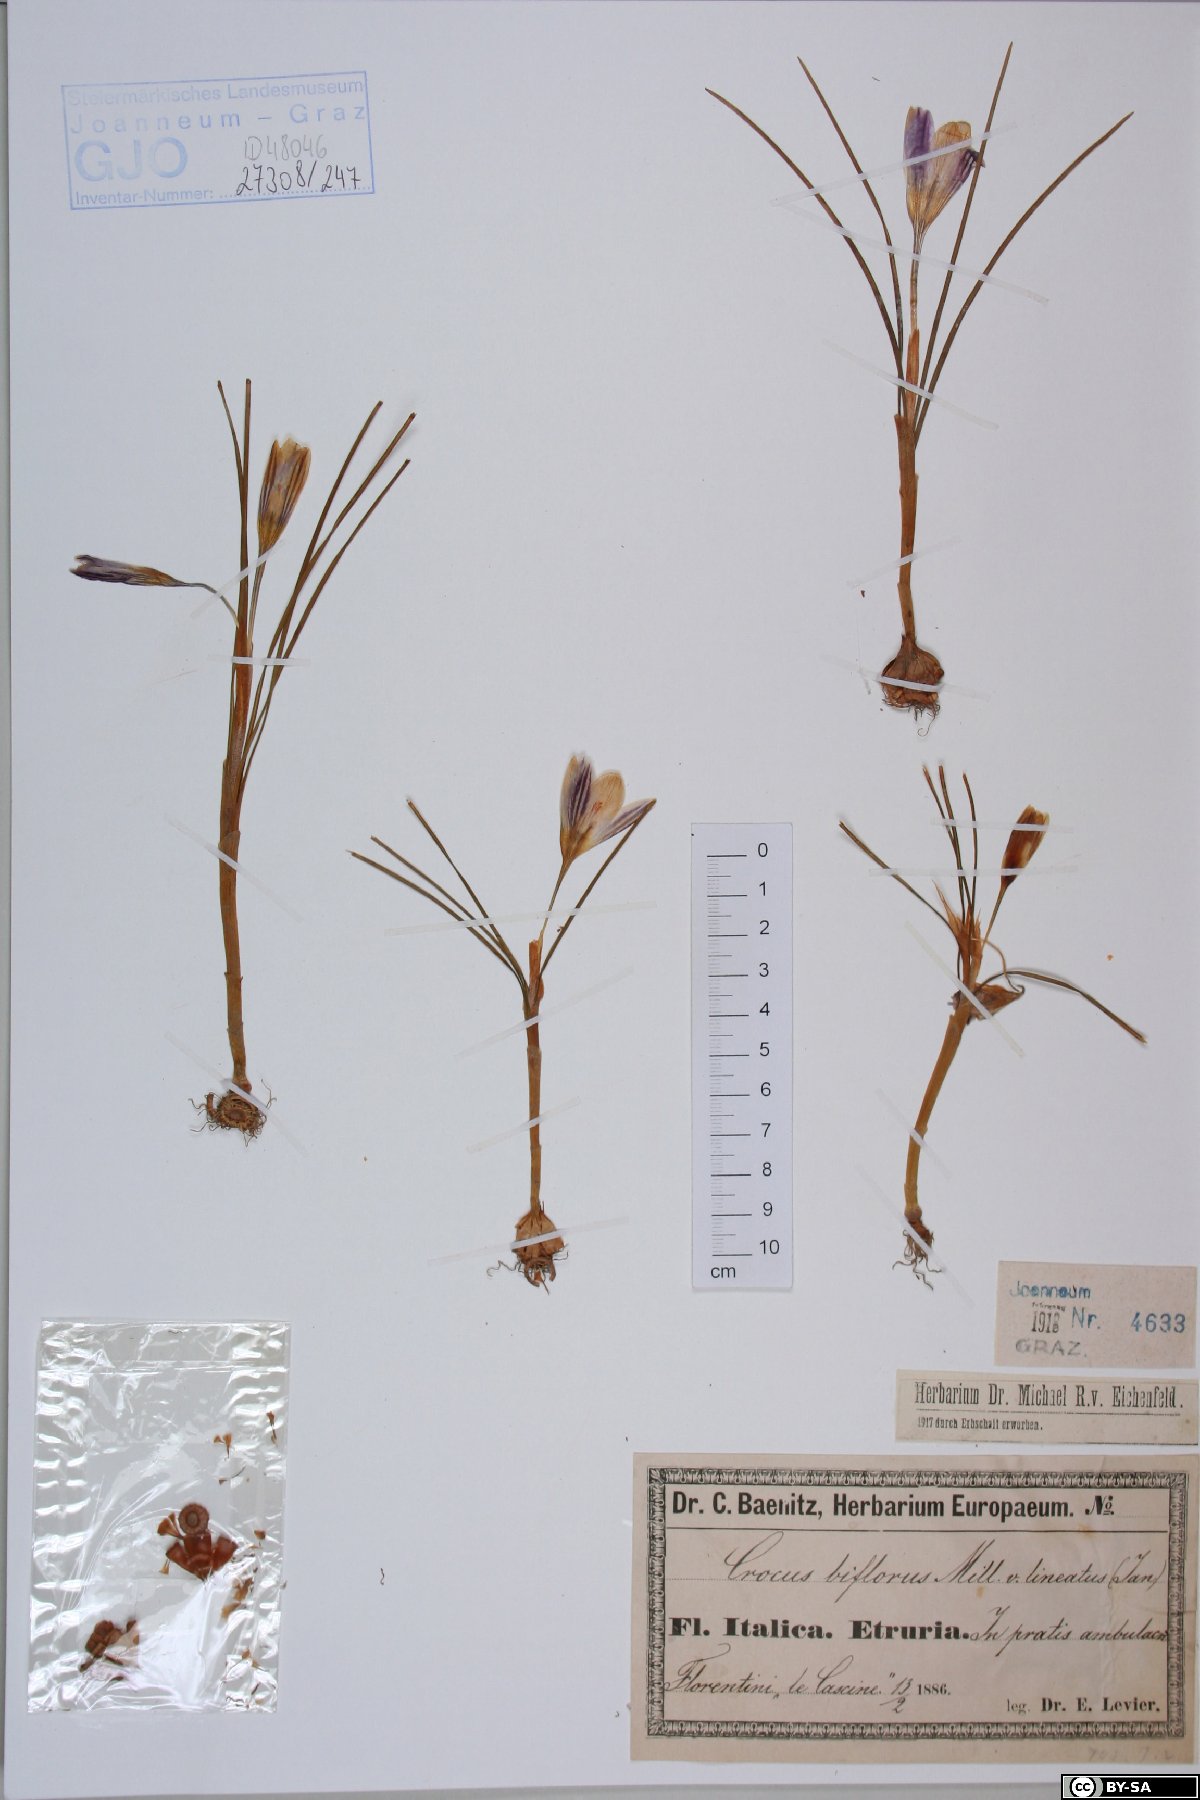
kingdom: Plantae
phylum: Tracheophyta
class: Liliopsida
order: Asparagales
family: Iridaceae
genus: Crocus
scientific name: Crocus biflorus
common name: Silvery crocus
